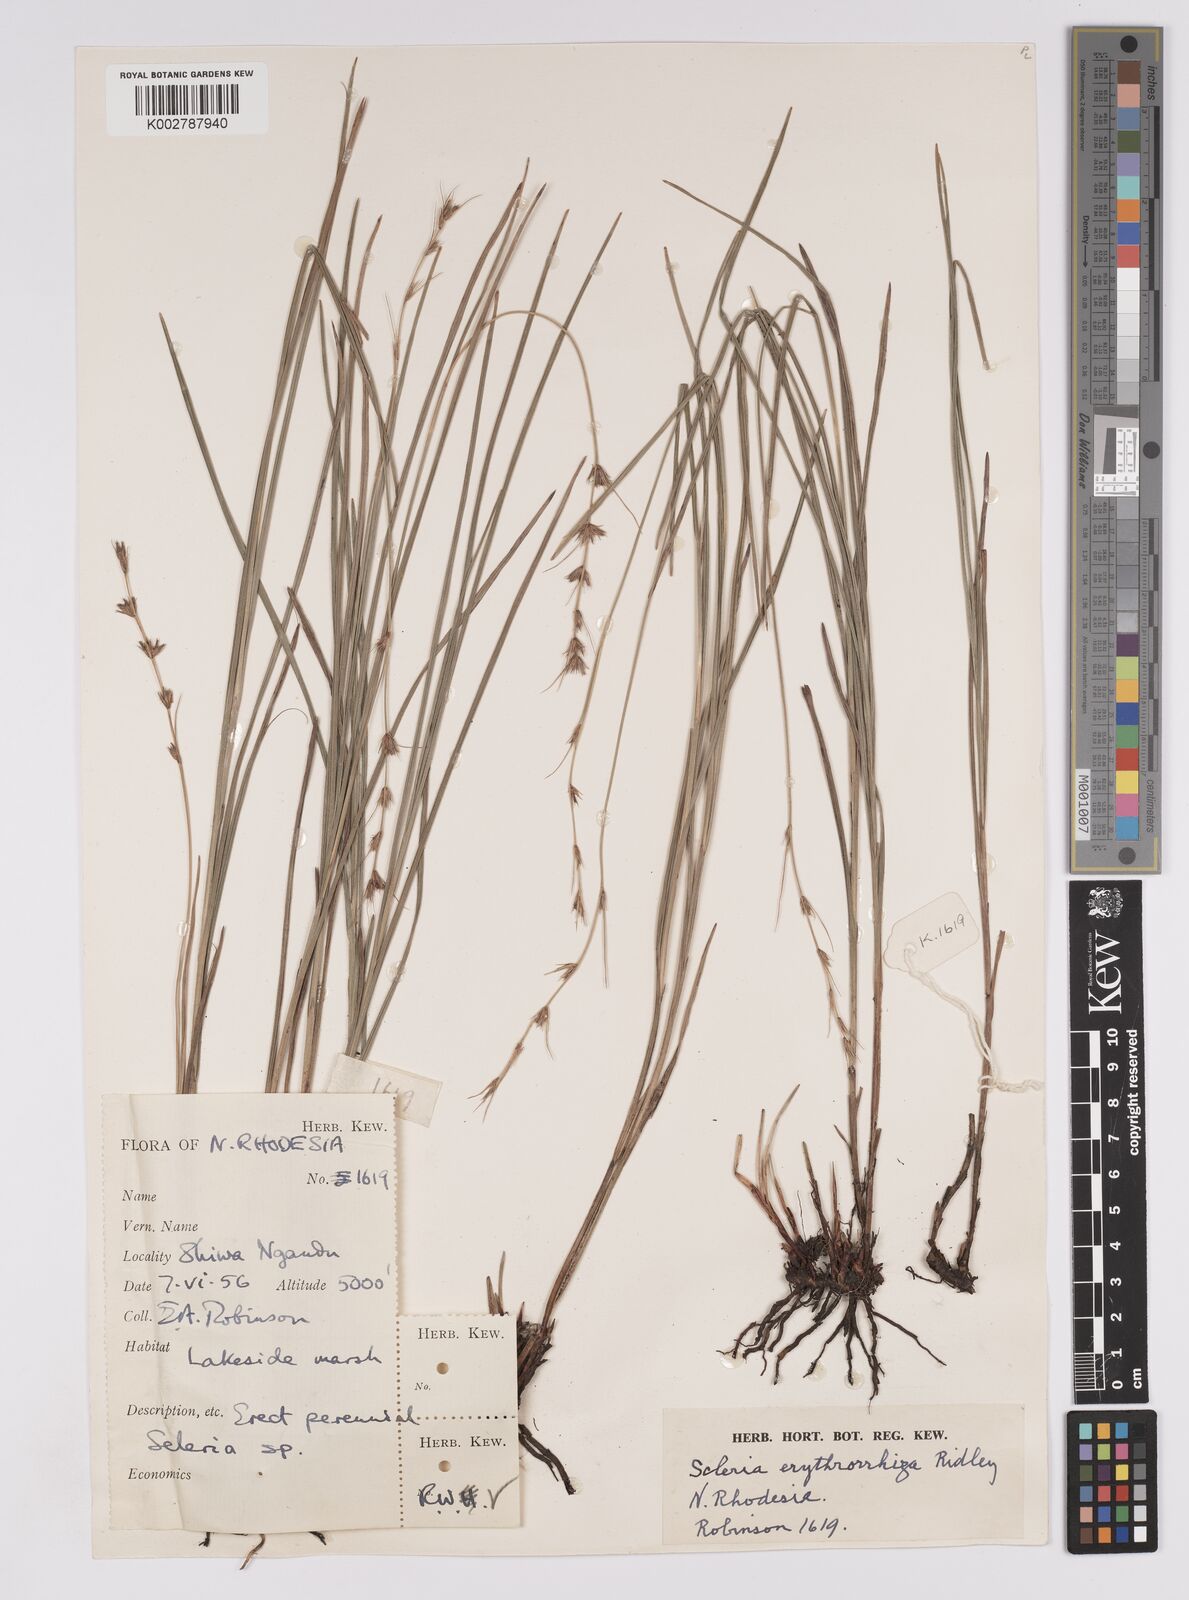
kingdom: Plantae
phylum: Tracheophyta
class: Liliopsida
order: Poales
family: Cyperaceae
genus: Scleria
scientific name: Scleria erythrorrhiza
